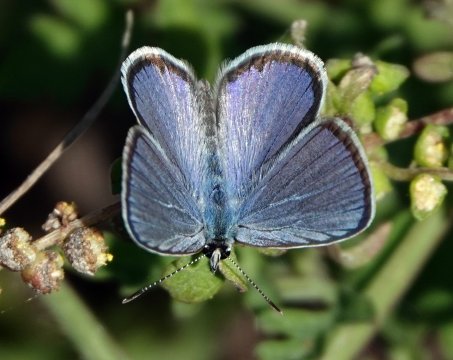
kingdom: Animalia
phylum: Arthropoda
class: Insecta
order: Lepidoptera
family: Lycaenidae
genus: Hemiargus
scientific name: Hemiargus ceraunus
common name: Ceraunus Blue
